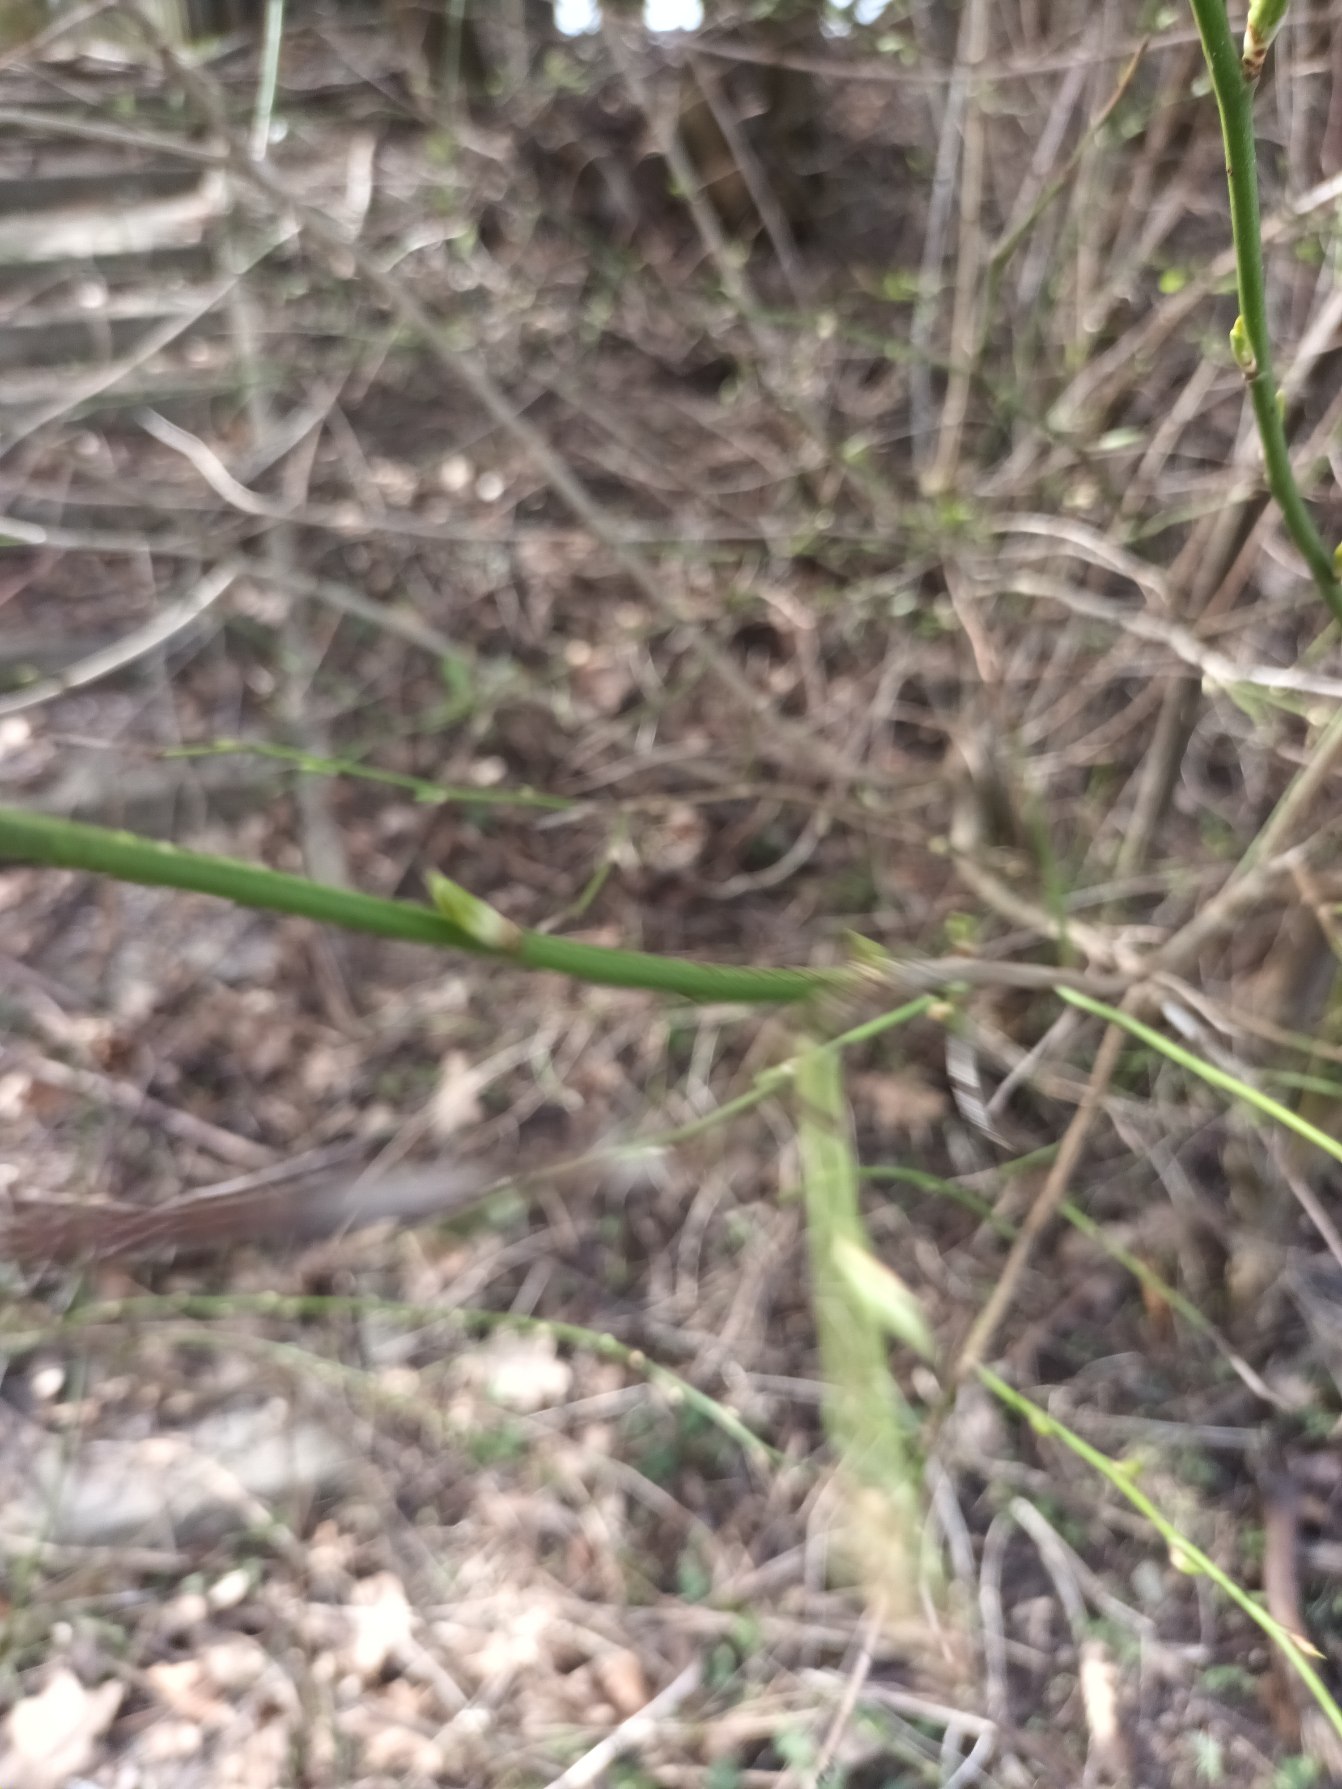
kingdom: Plantae
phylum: Tracheophyta
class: Magnoliopsida
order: Rosales
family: Rosaceae
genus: Prunus
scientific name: Prunus cerasifera
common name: Mirabel
